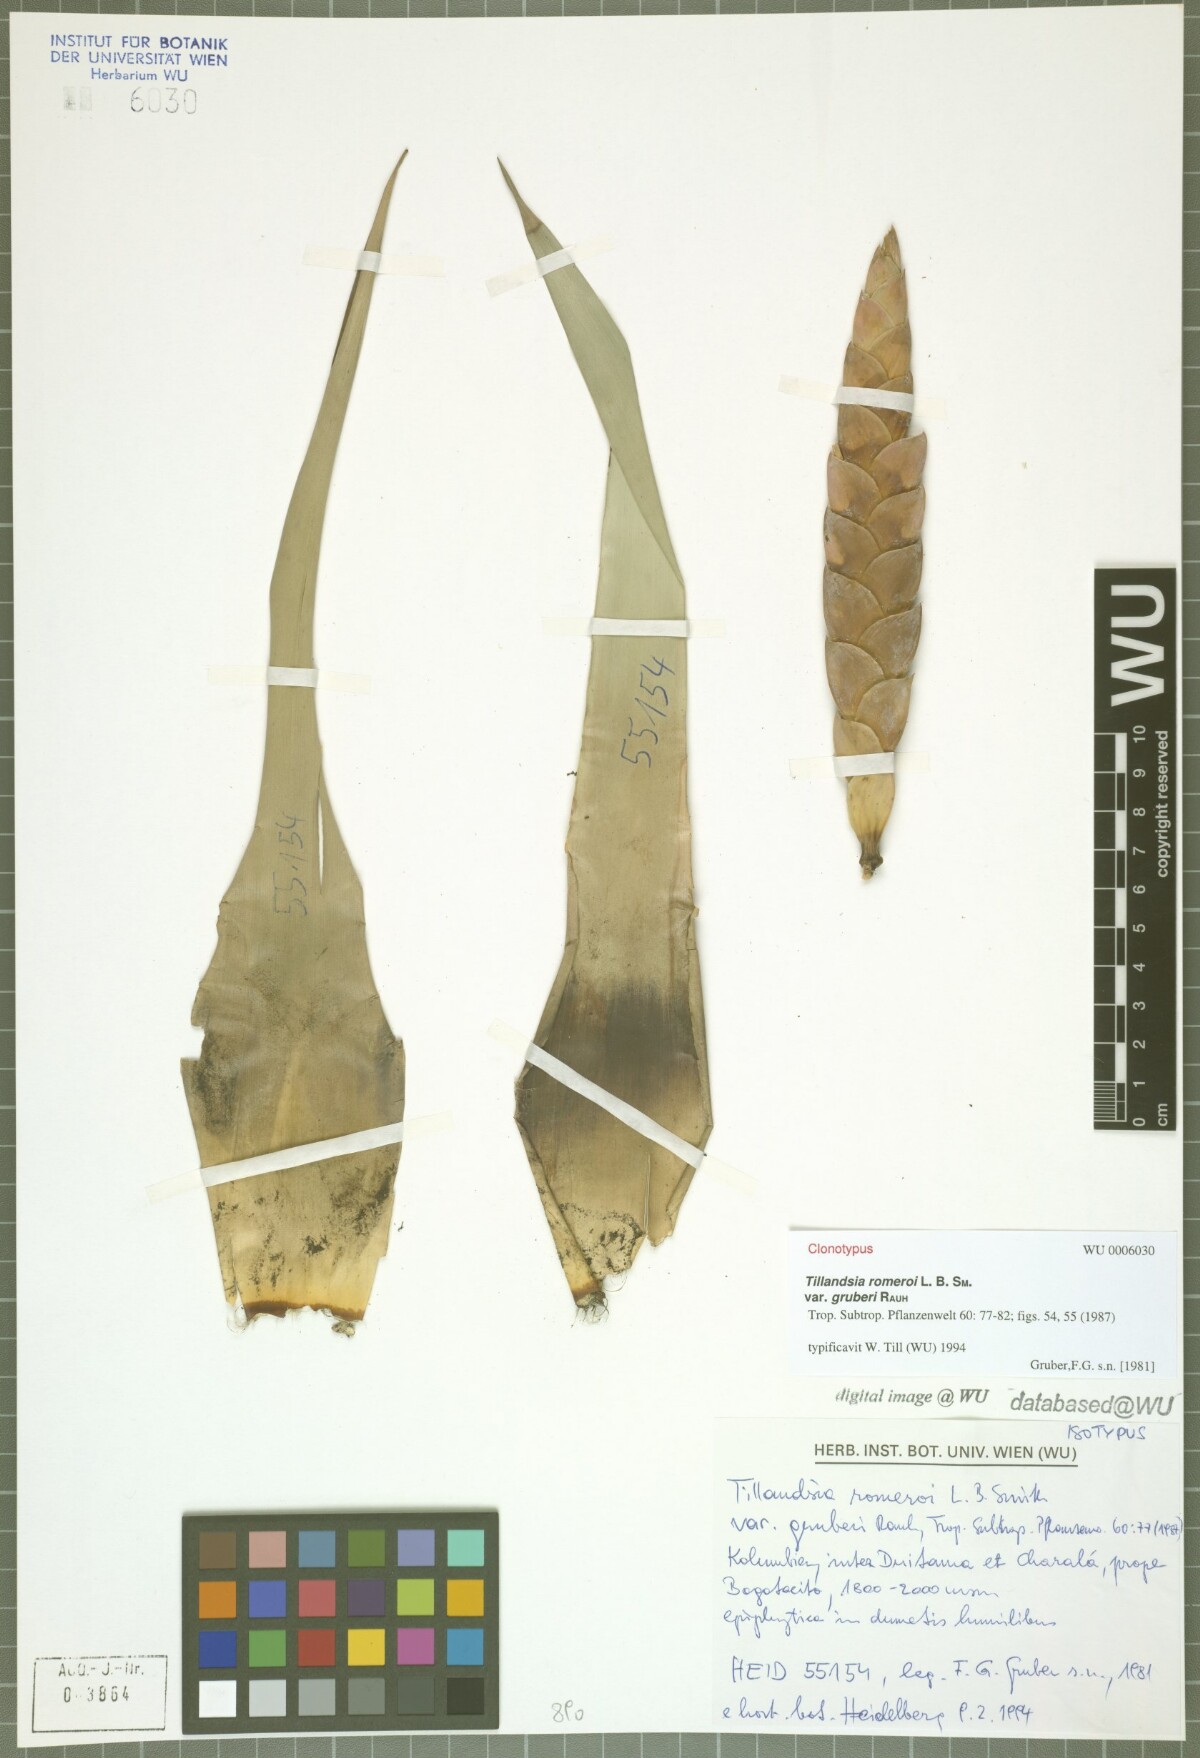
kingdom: Plantae
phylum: Tracheophyta
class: Liliopsida
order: Poales
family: Bromeliaceae
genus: Tillandsia
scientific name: Tillandsia romeroi
